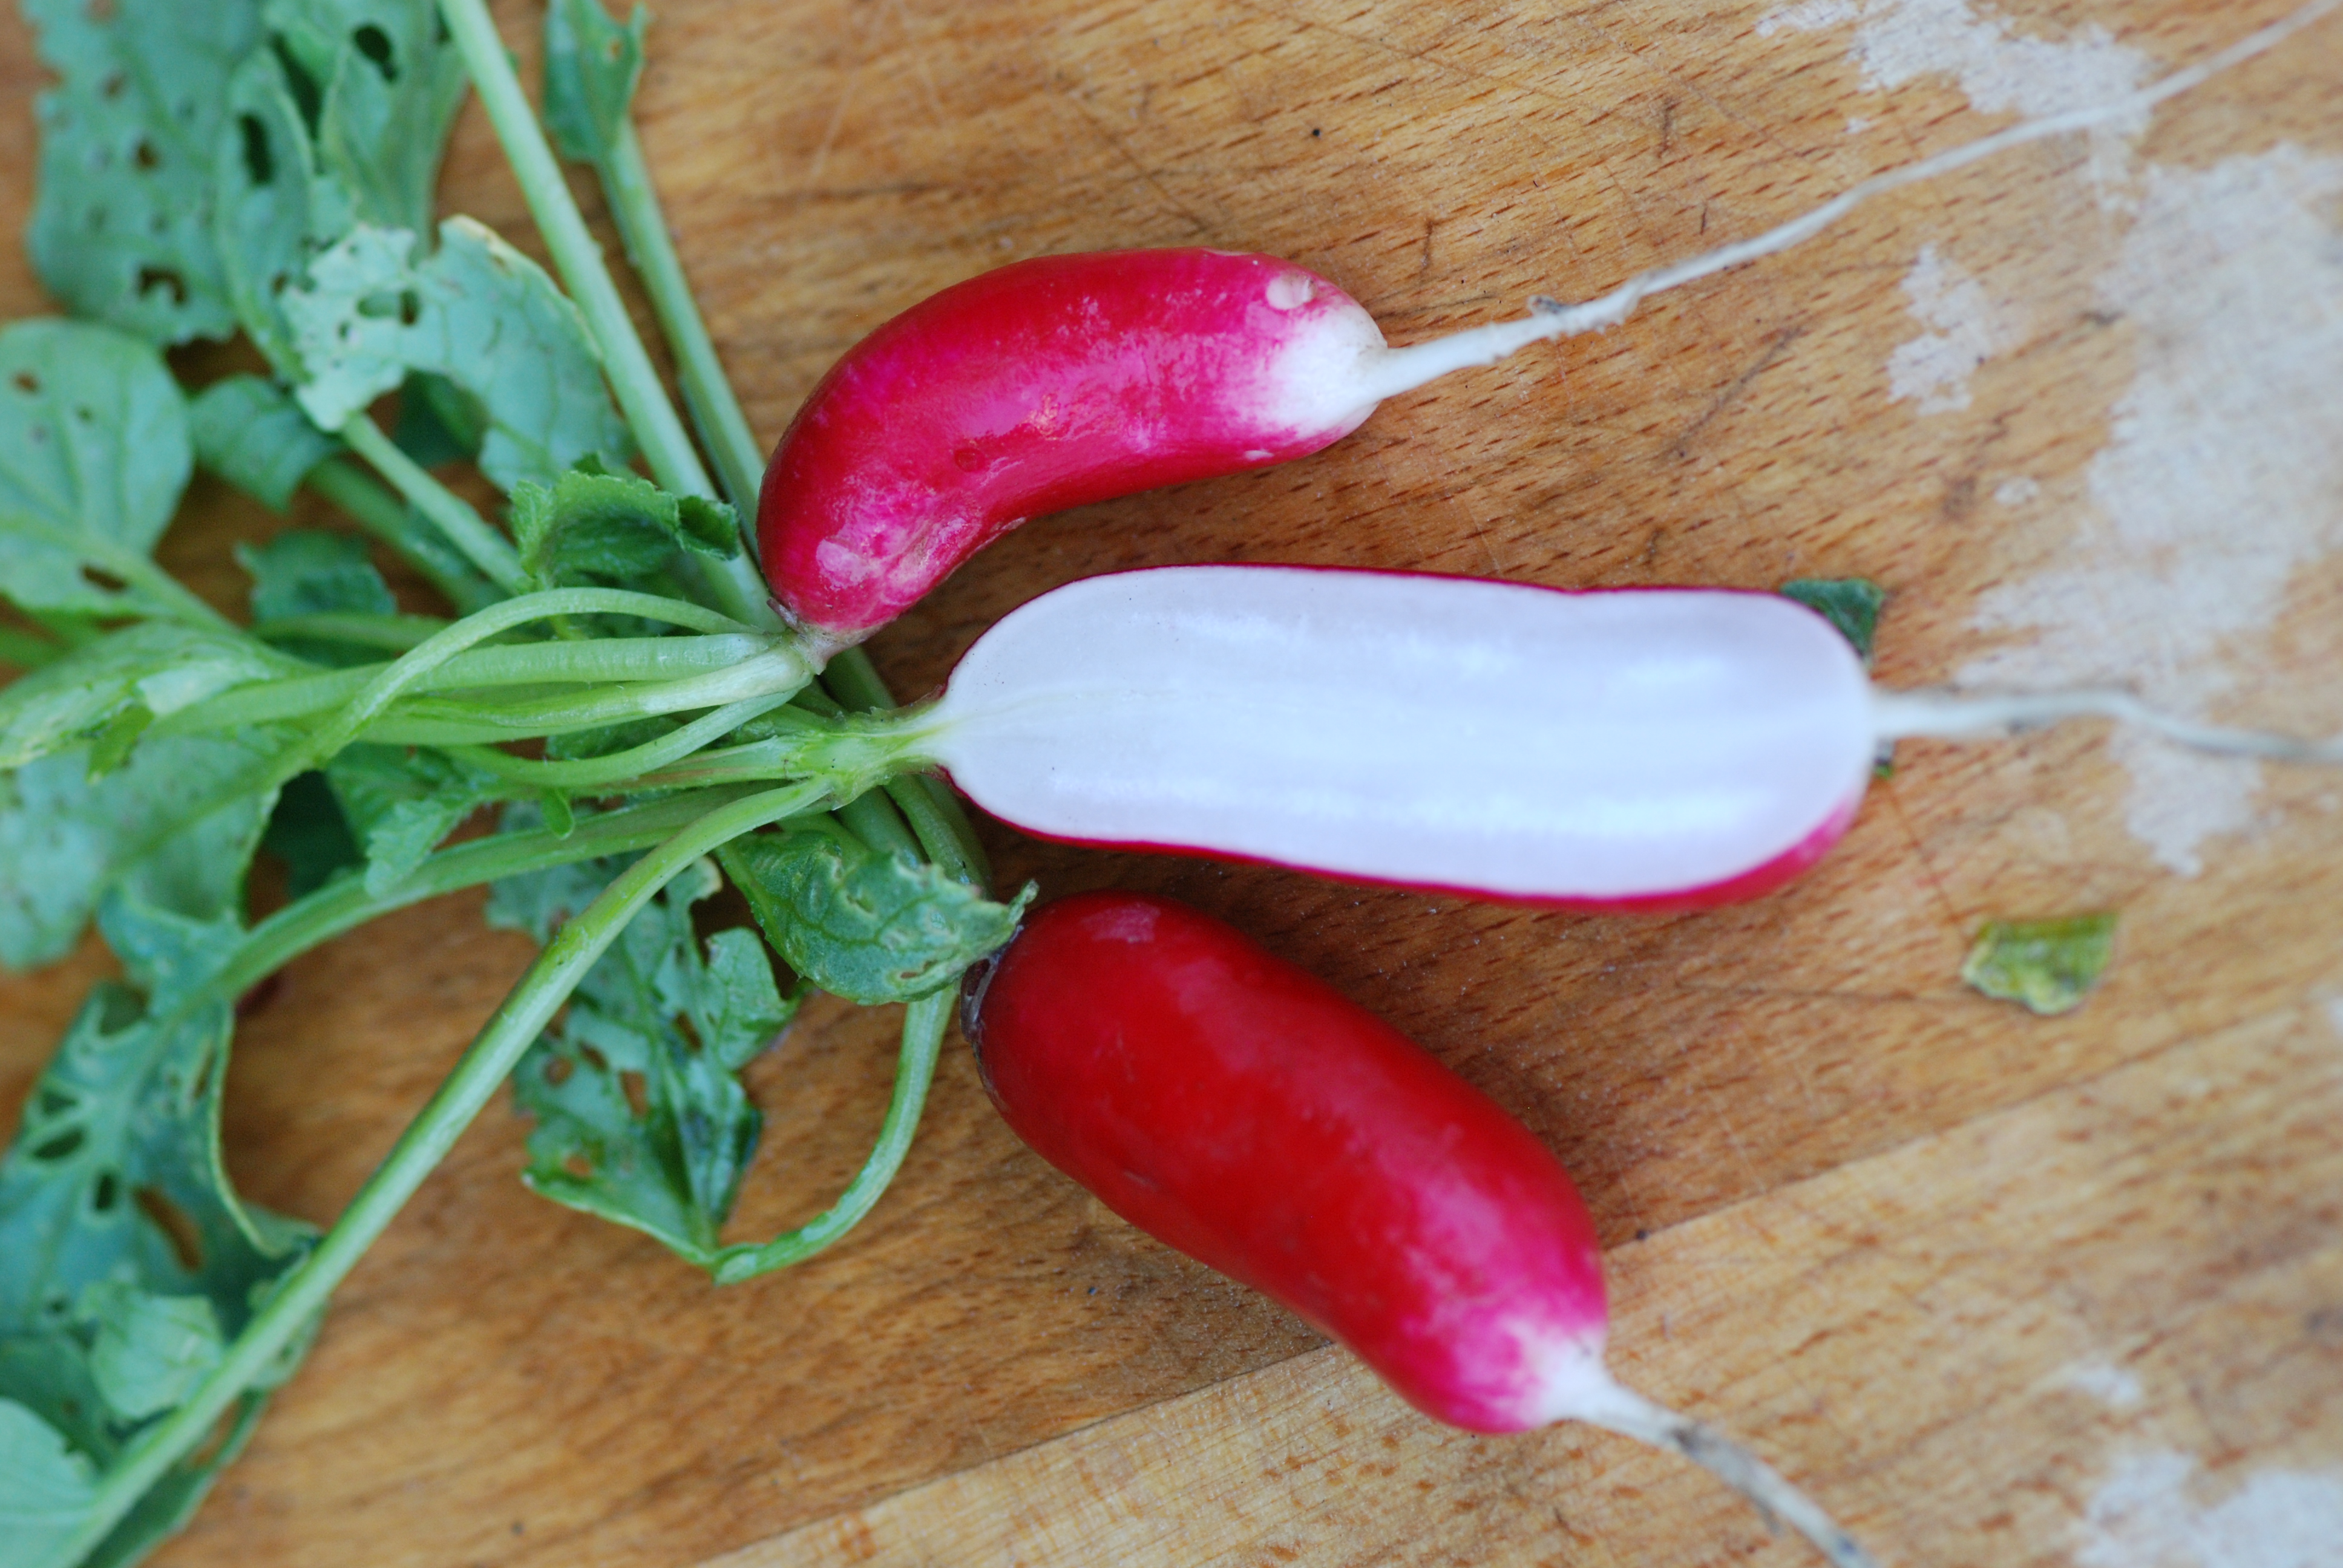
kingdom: Plantae
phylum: Tracheophyta
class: Magnoliopsida
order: Brassicales
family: Brassicaceae
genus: Raphanus
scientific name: Raphanus sativus
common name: Cultivated radish
